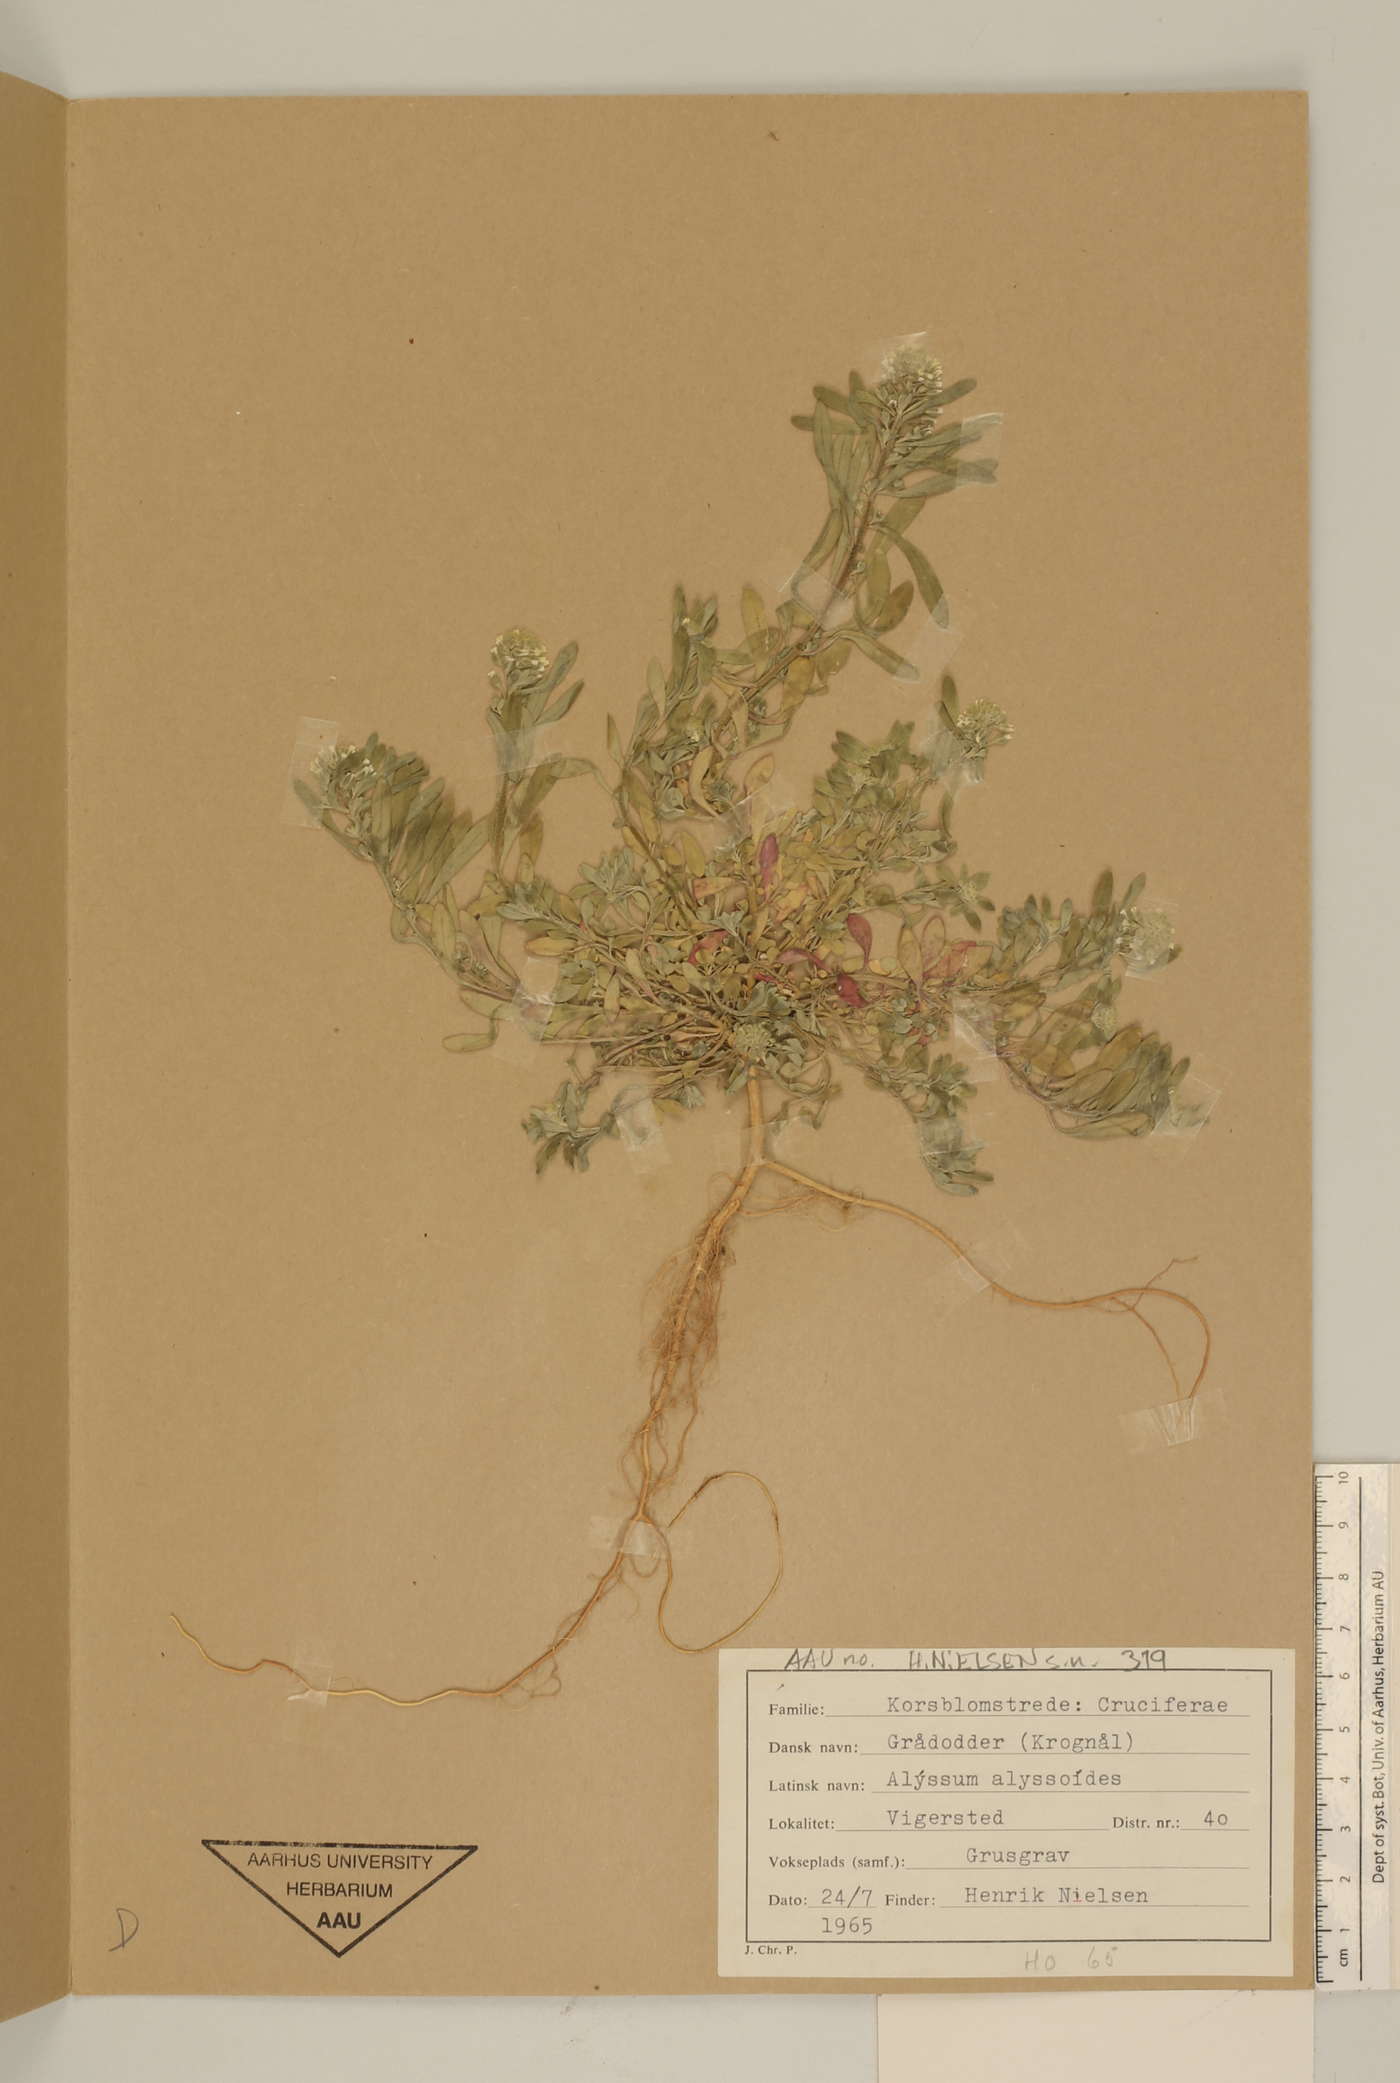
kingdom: Plantae
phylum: Tracheophyta
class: Magnoliopsida
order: Brassicales
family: Brassicaceae
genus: Alyssum
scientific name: Alyssum alyssoides
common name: Small alison
